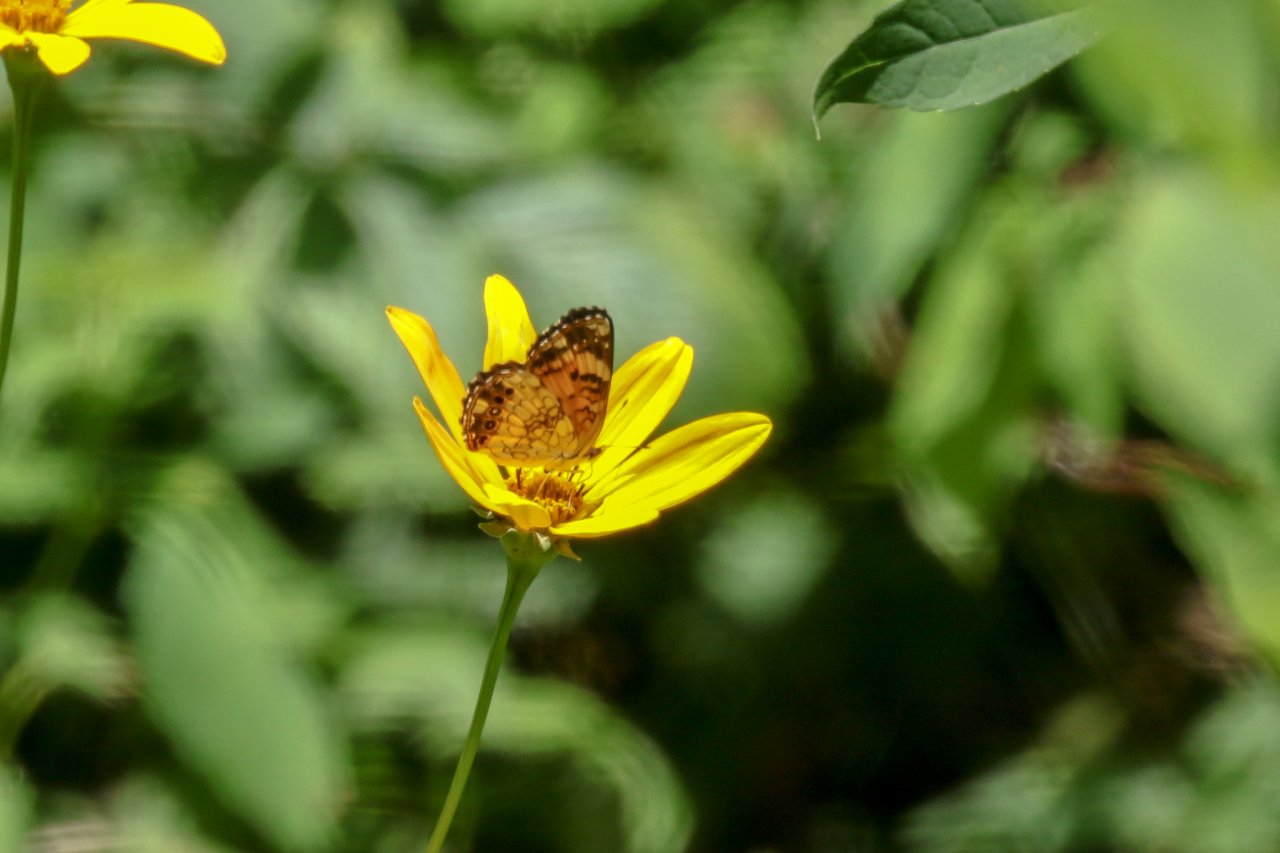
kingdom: Animalia
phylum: Arthropoda
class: Insecta
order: Lepidoptera
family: Nymphalidae
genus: Chlosyne
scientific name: Chlosyne nycteis
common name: Silvery Checkerspot
